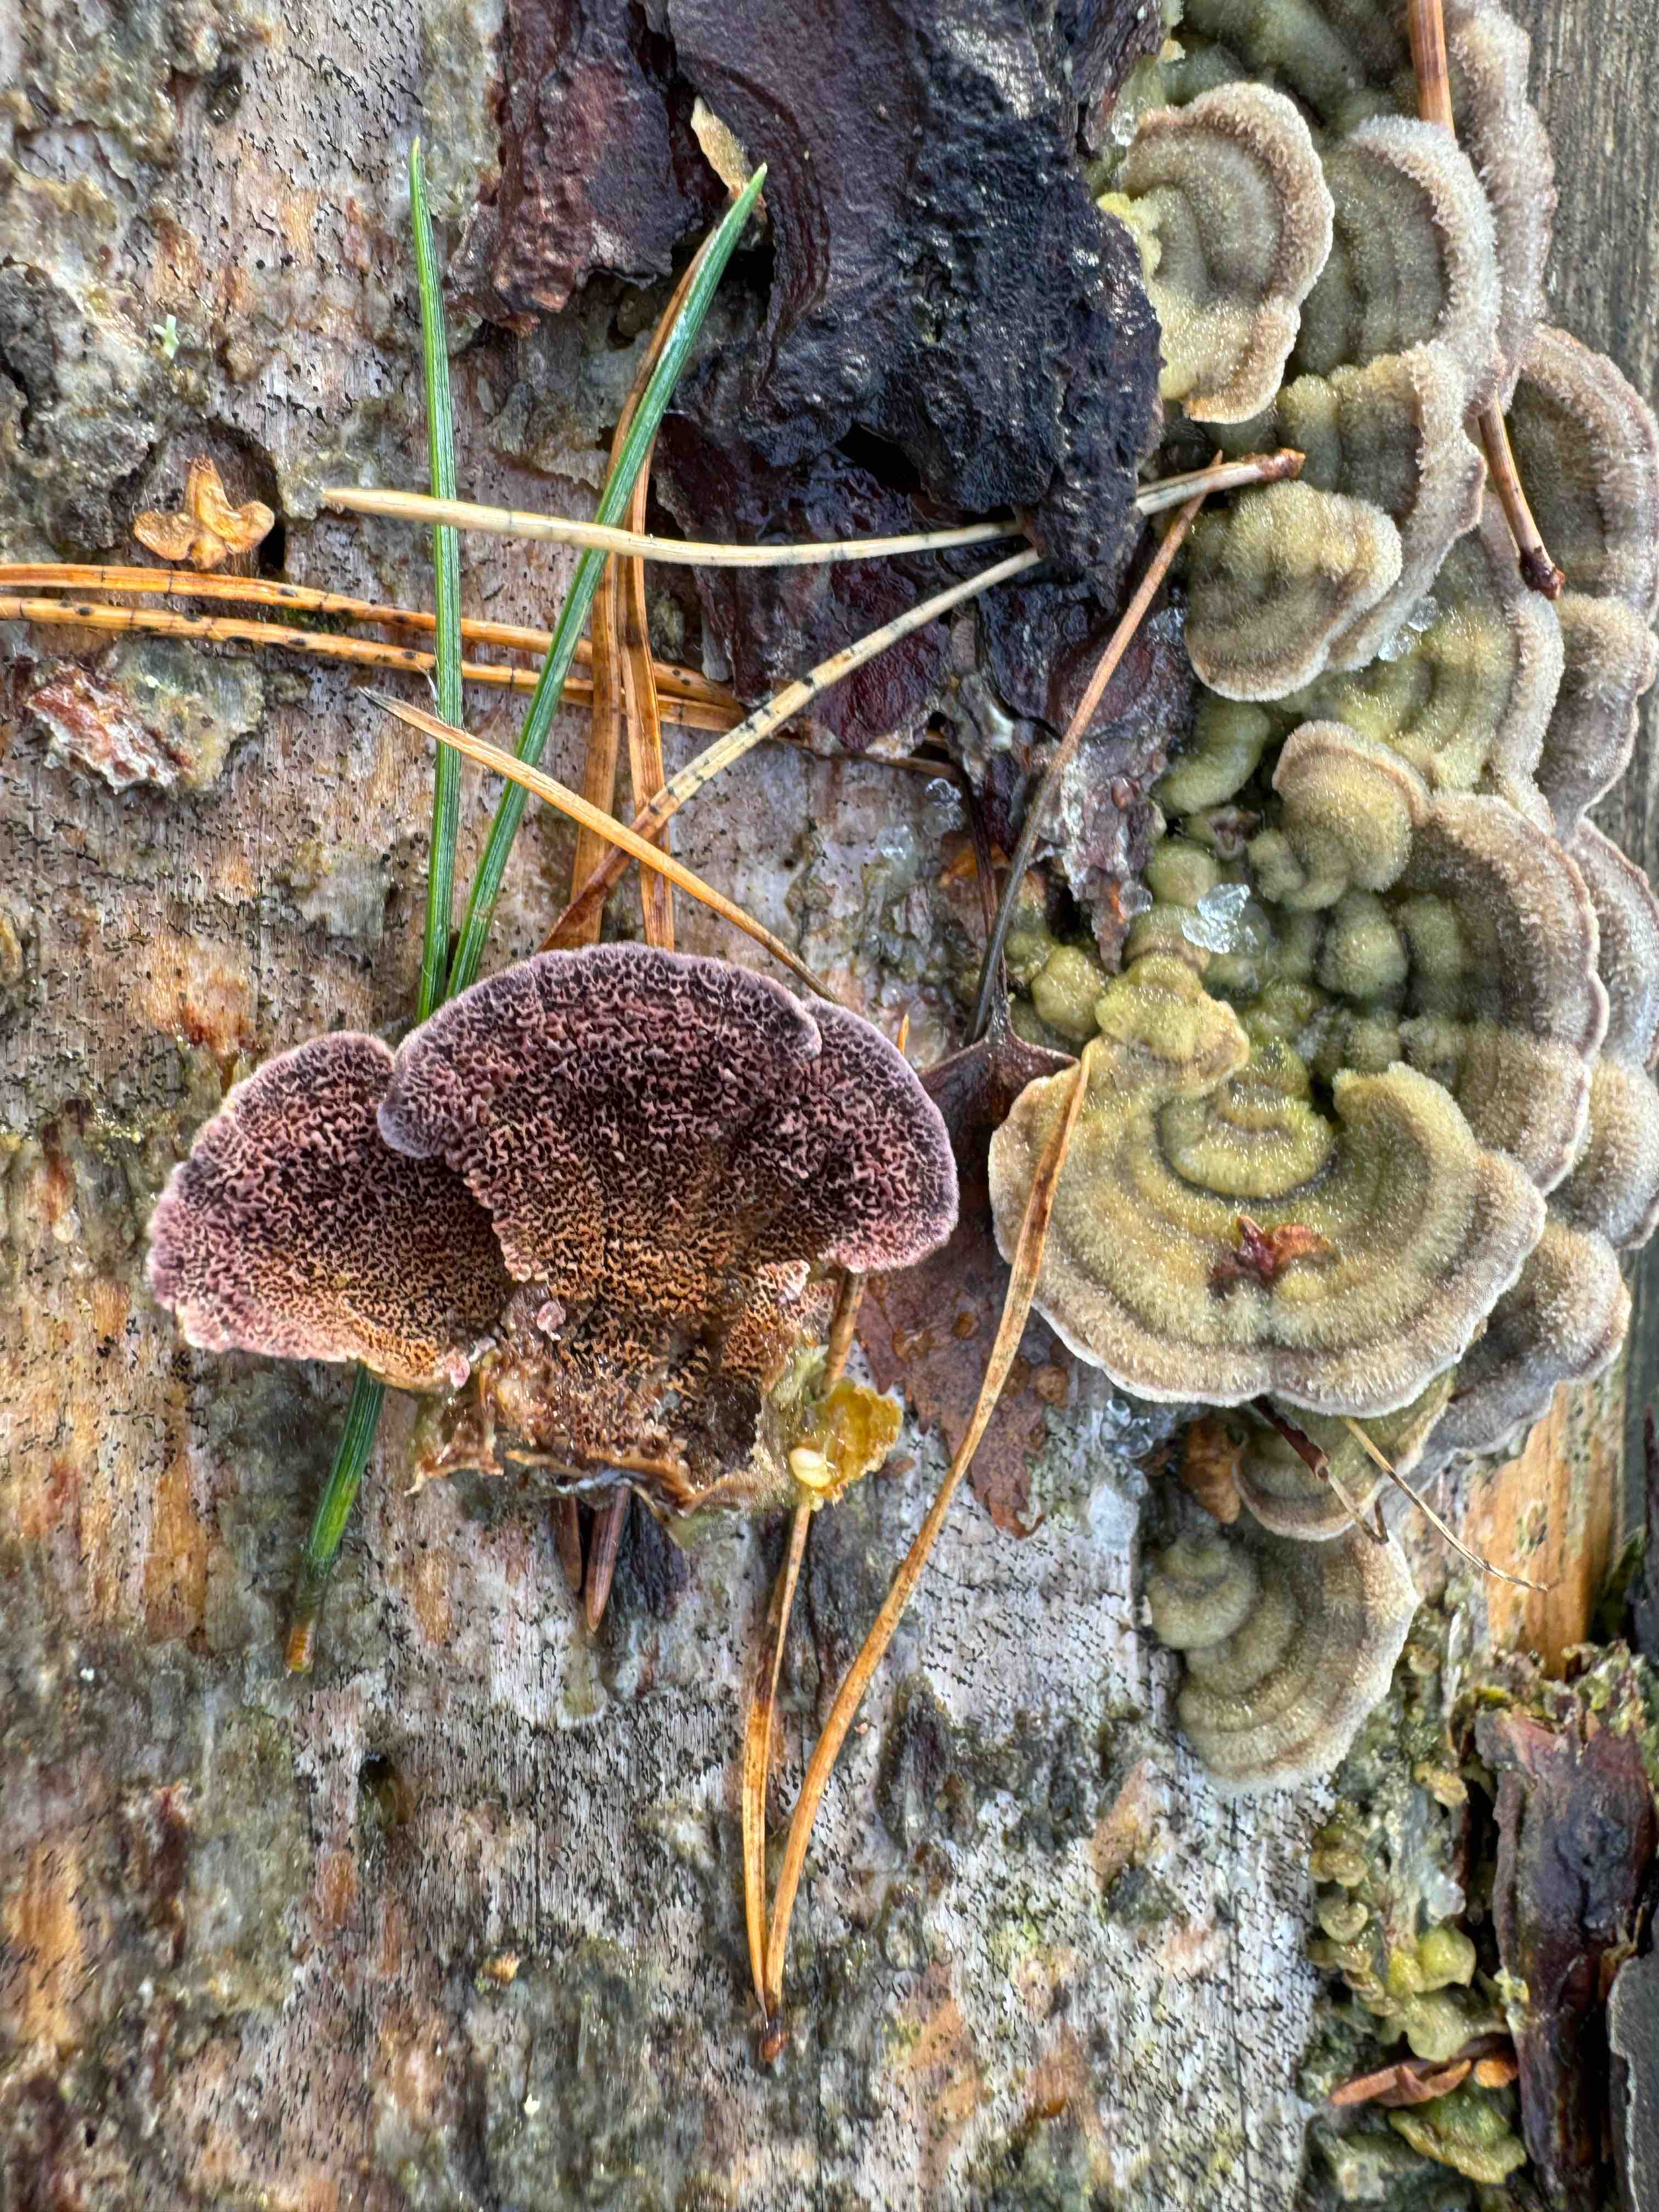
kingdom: Fungi
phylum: Basidiomycota
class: Agaricomycetes
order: Hymenochaetales
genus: Trichaptum
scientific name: Trichaptum abietinum
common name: almindelig violporesvamp
